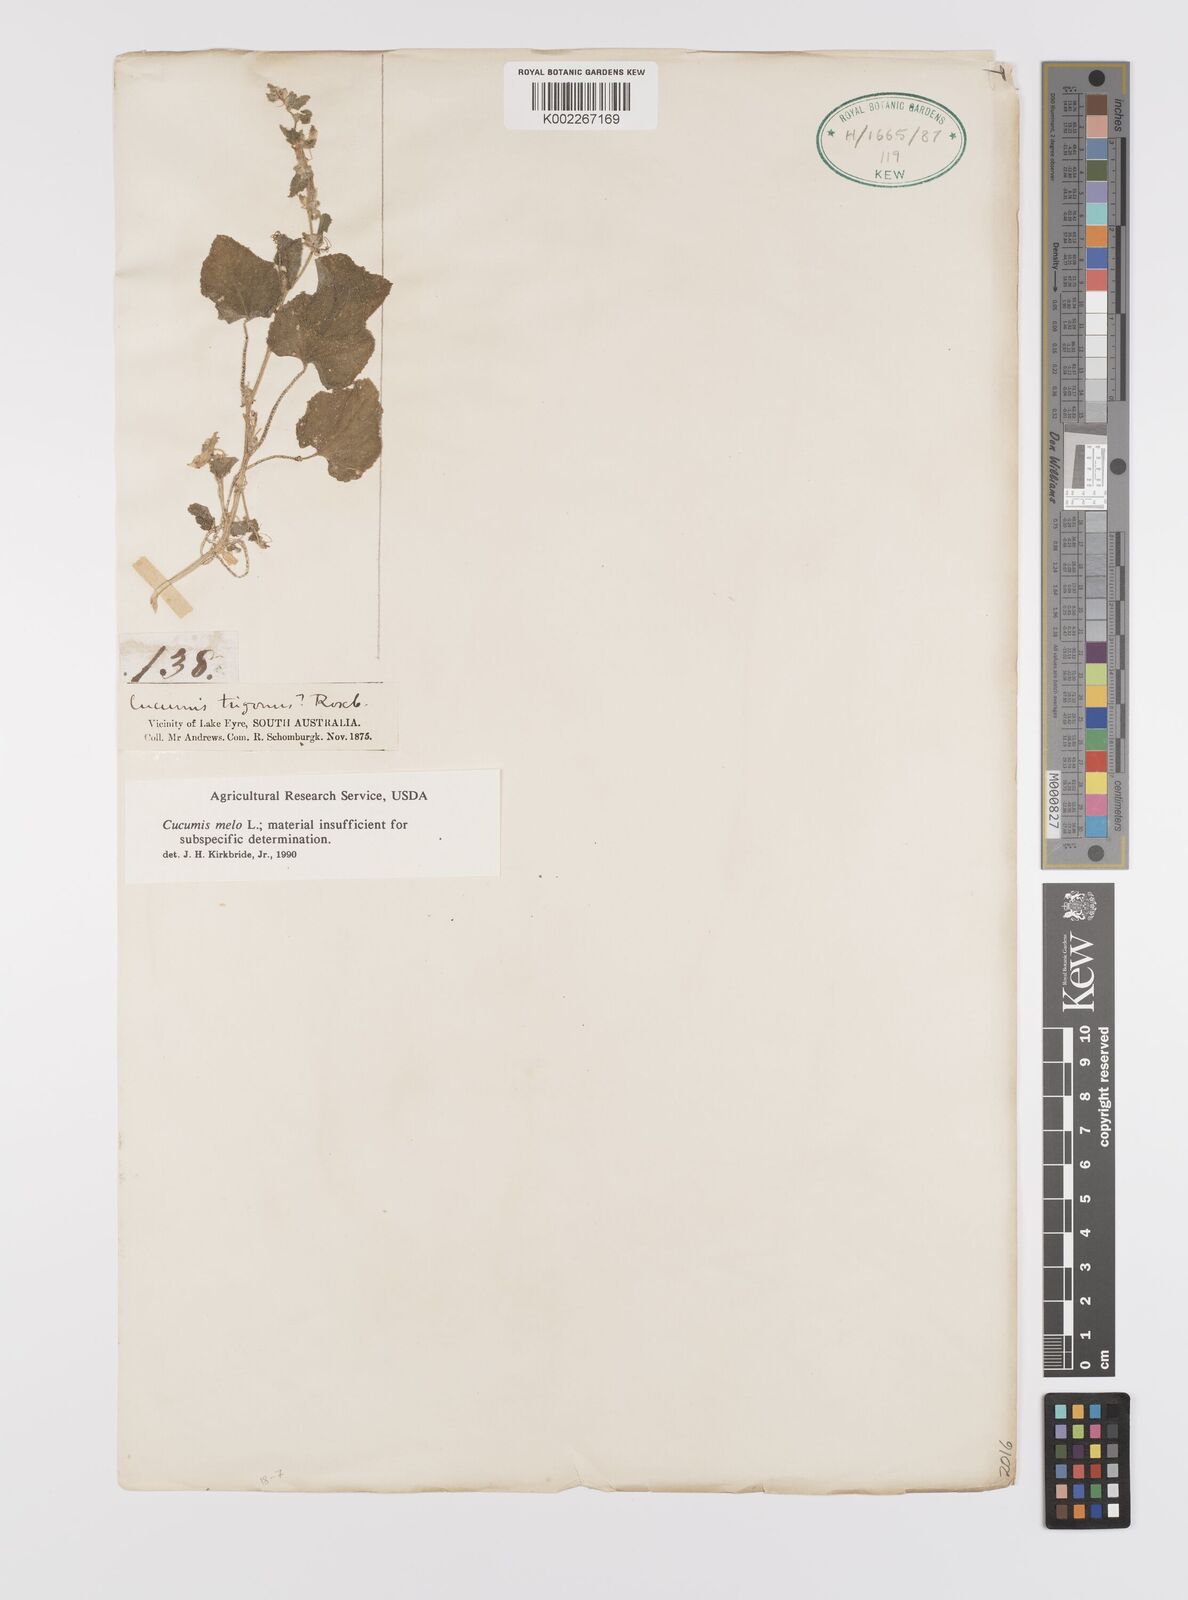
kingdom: Plantae
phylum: Tracheophyta
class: Magnoliopsida
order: Cucurbitales
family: Cucurbitaceae
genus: Cucumis
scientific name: Cucumis melo
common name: Melon
